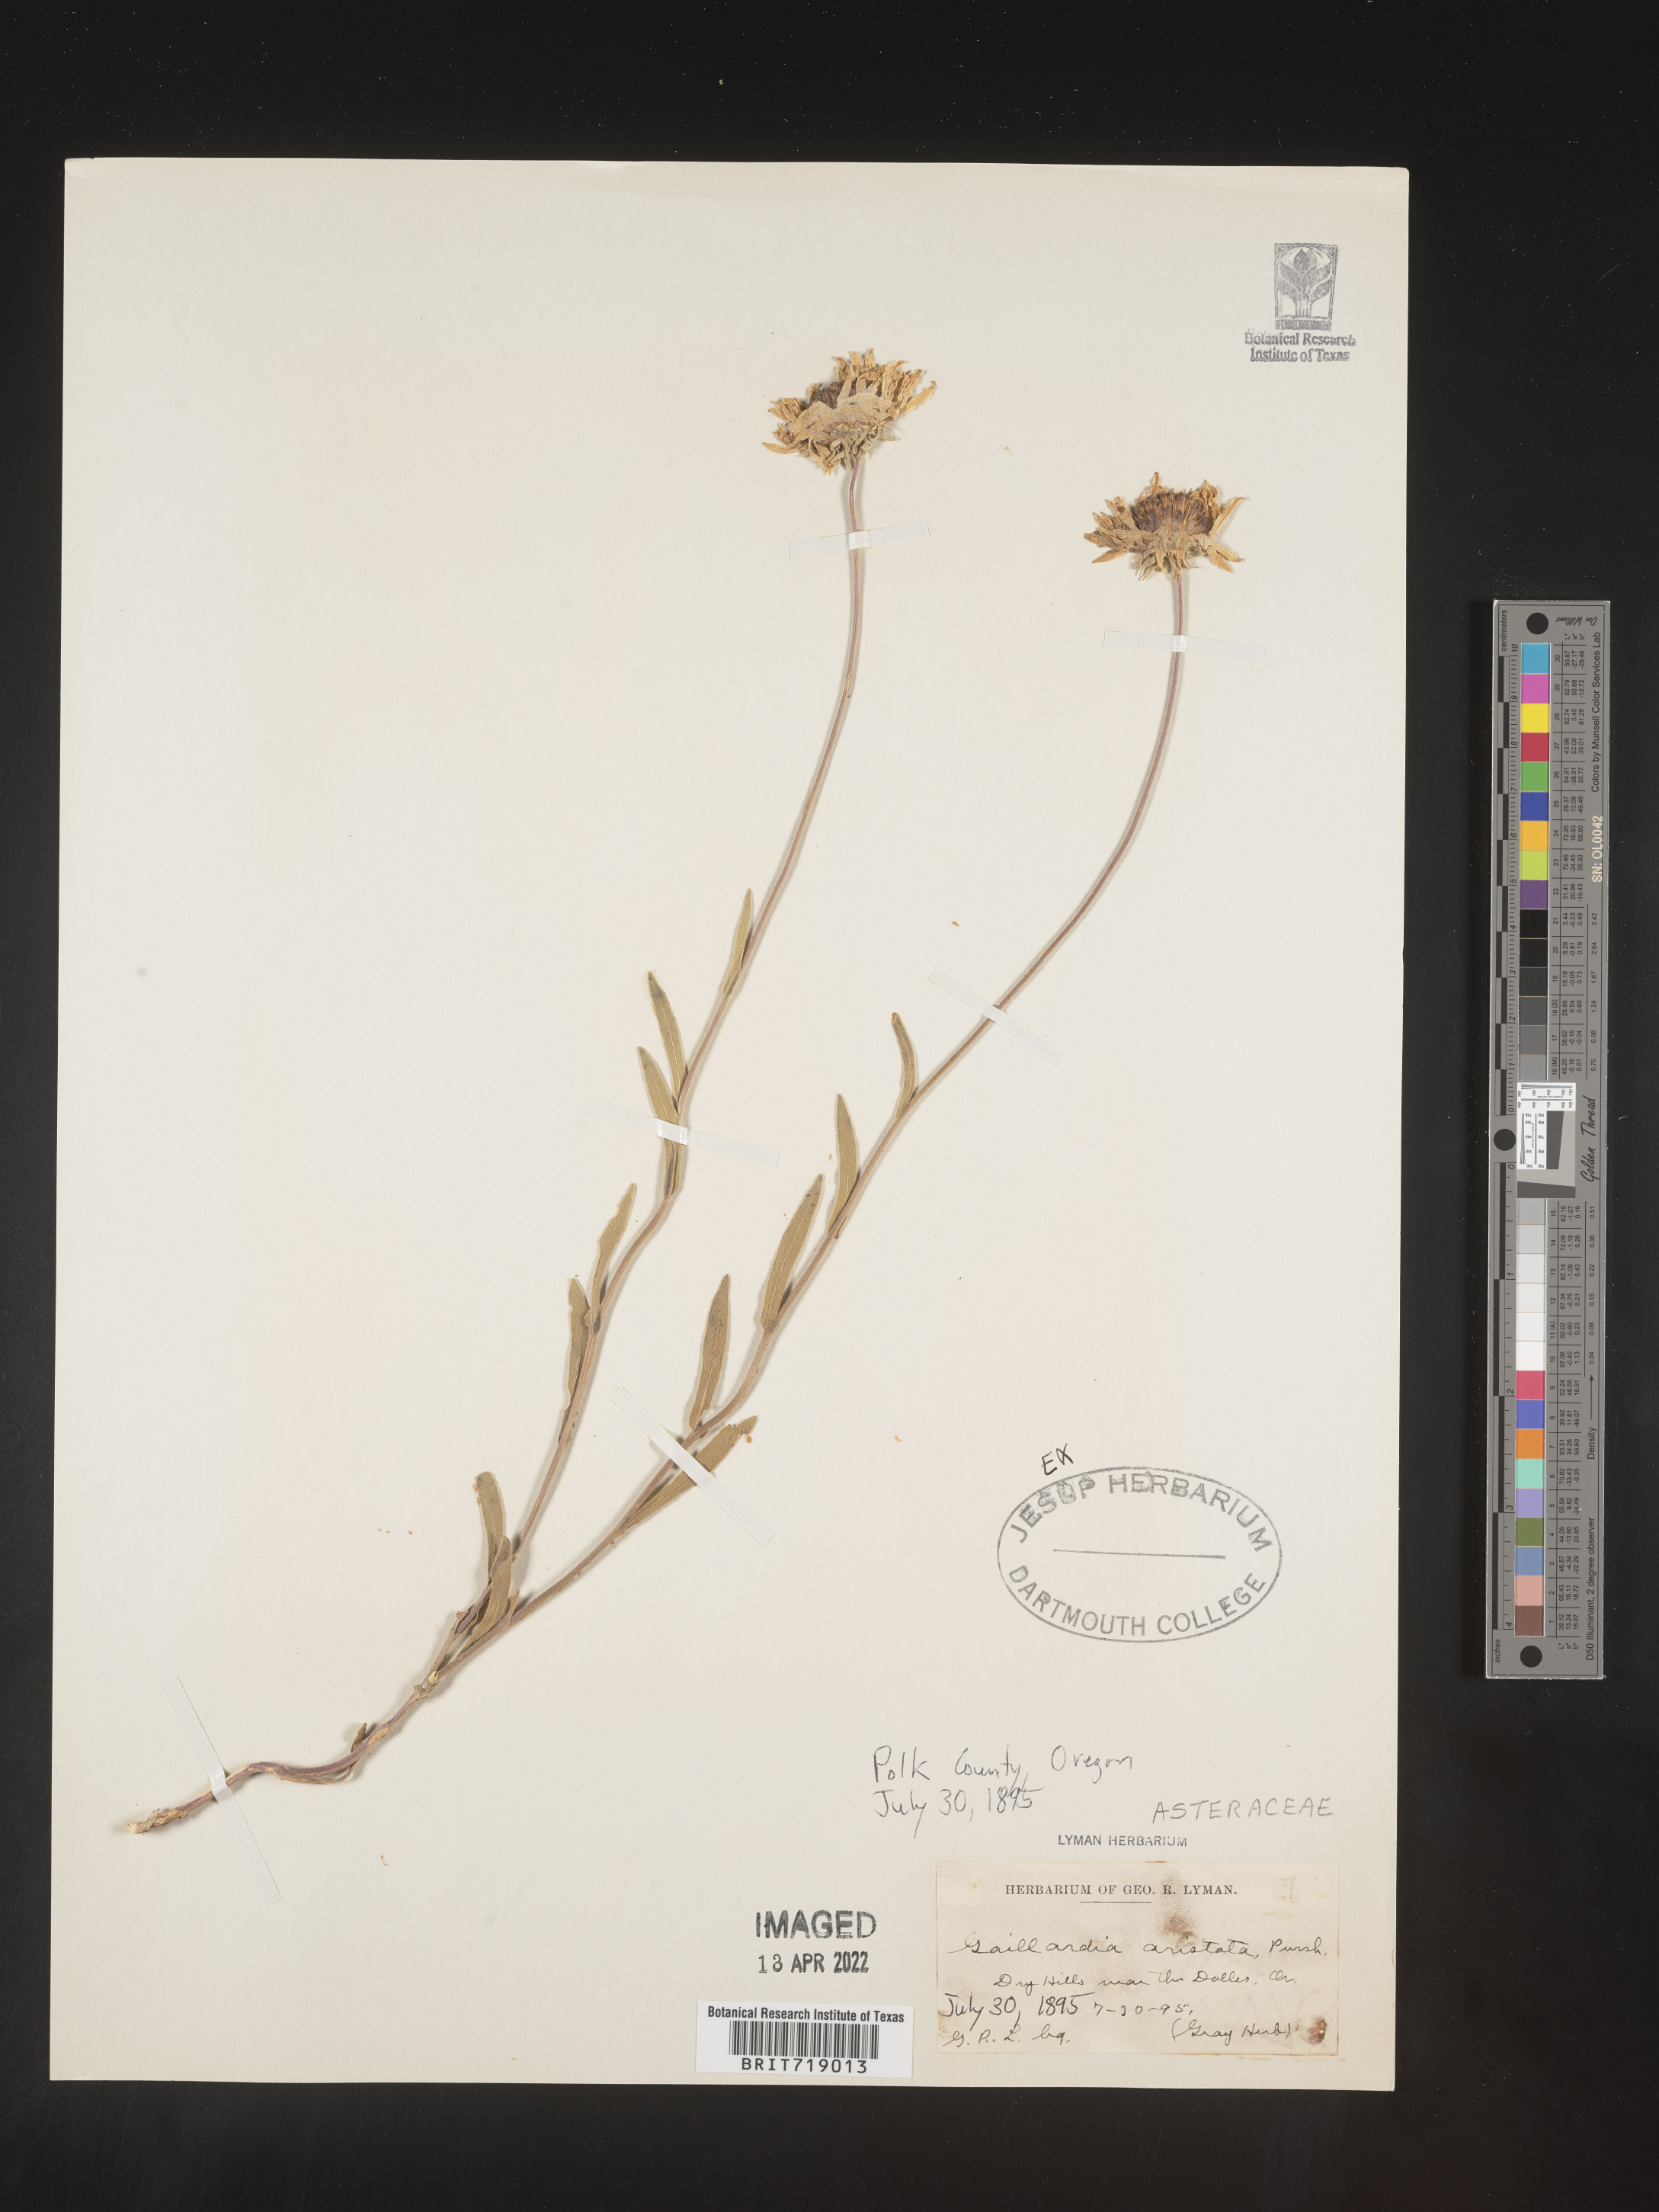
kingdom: Plantae
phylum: Tracheophyta
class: Magnoliopsida
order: Asterales
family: Asteraceae
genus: Gaillardia
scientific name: Gaillardia aristata
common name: Blanket-flower
